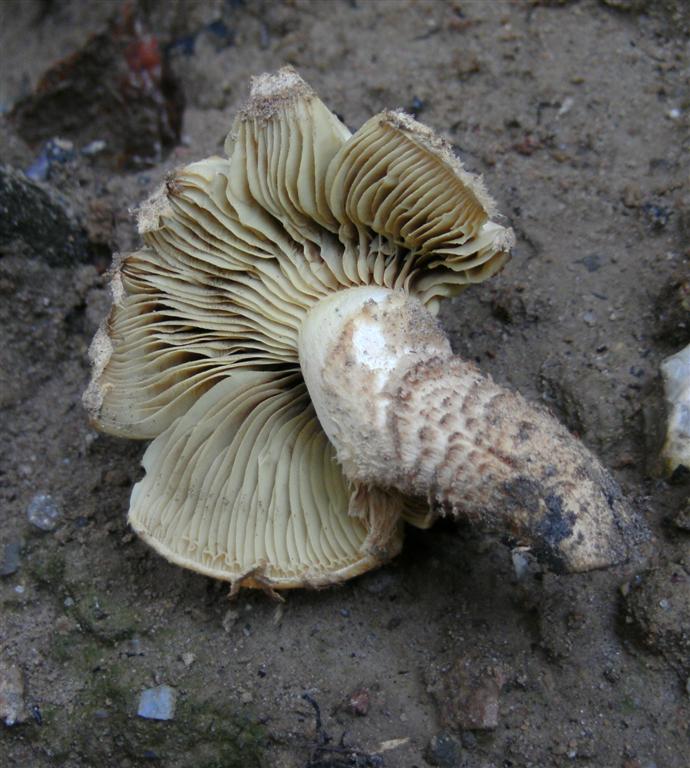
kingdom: Fungi
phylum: Basidiomycota
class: Agaricomycetes
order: Agaricales
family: Strophariaceae
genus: Pholiota
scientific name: Pholiota squarrosa
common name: krumskællet skælhat
